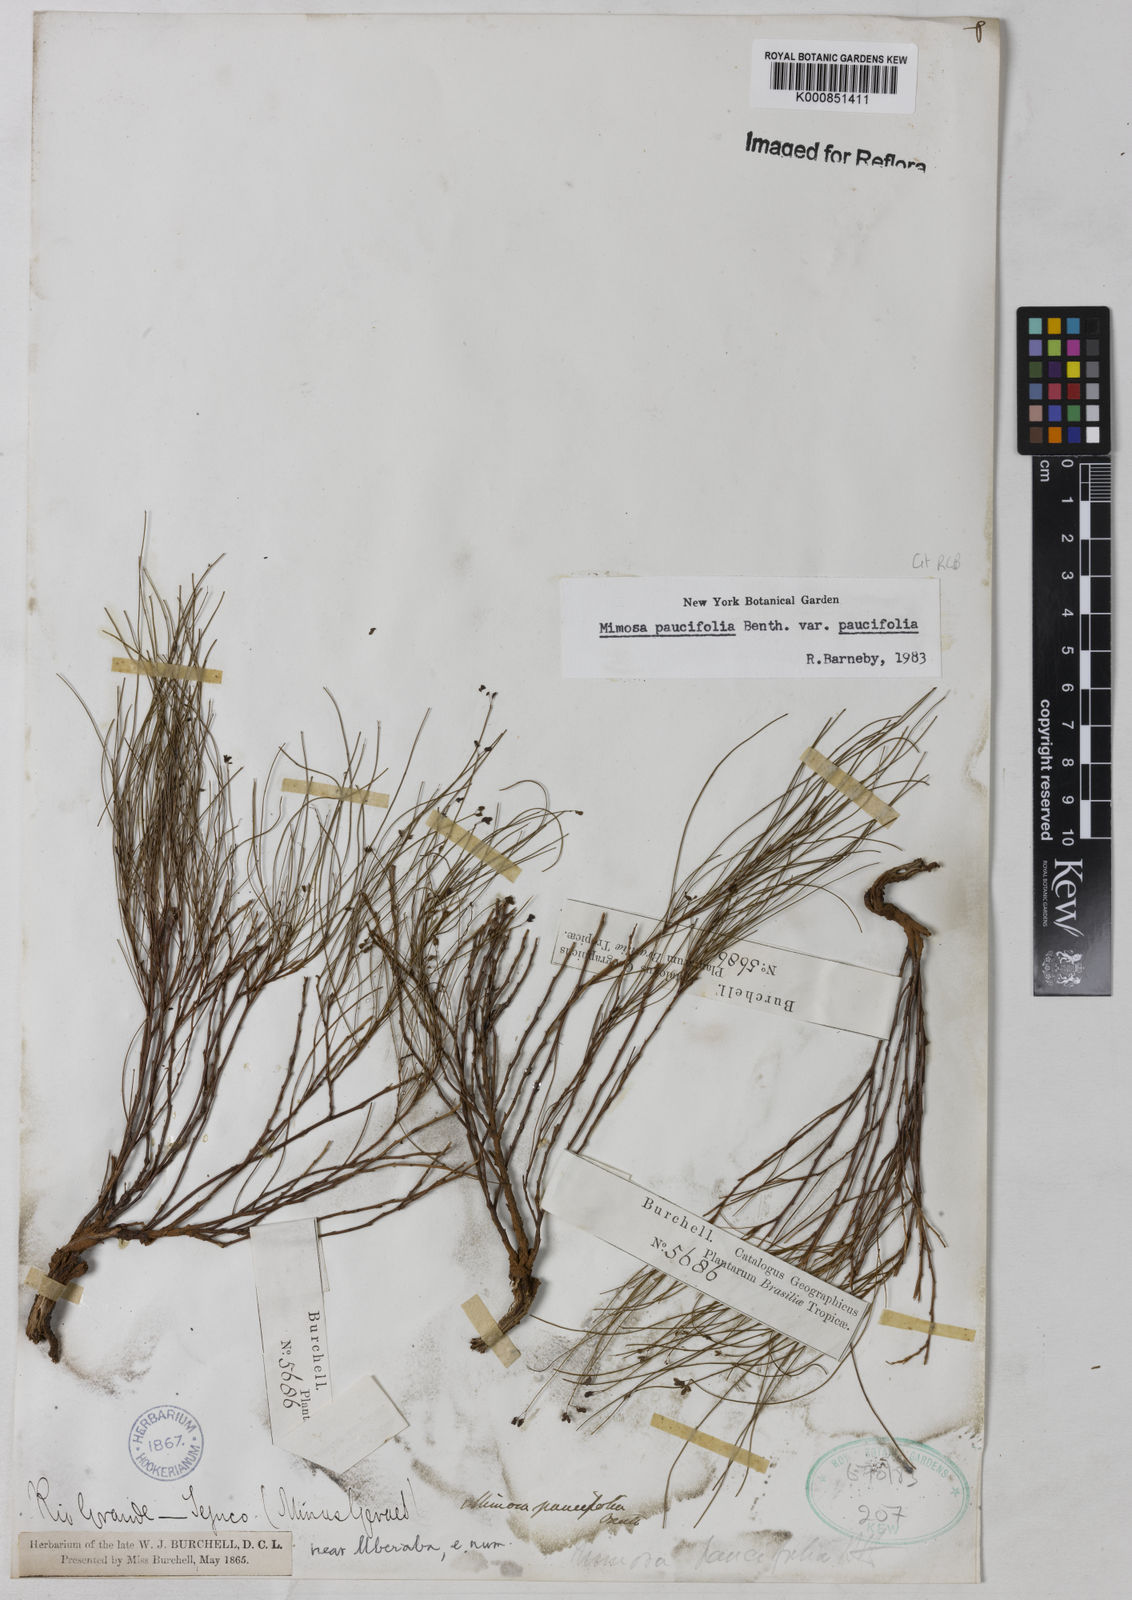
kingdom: Plantae
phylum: Tracheophyta
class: Magnoliopsida
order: Fabales
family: Fabaceae
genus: Mimosa
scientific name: Mimosa paucifolia
